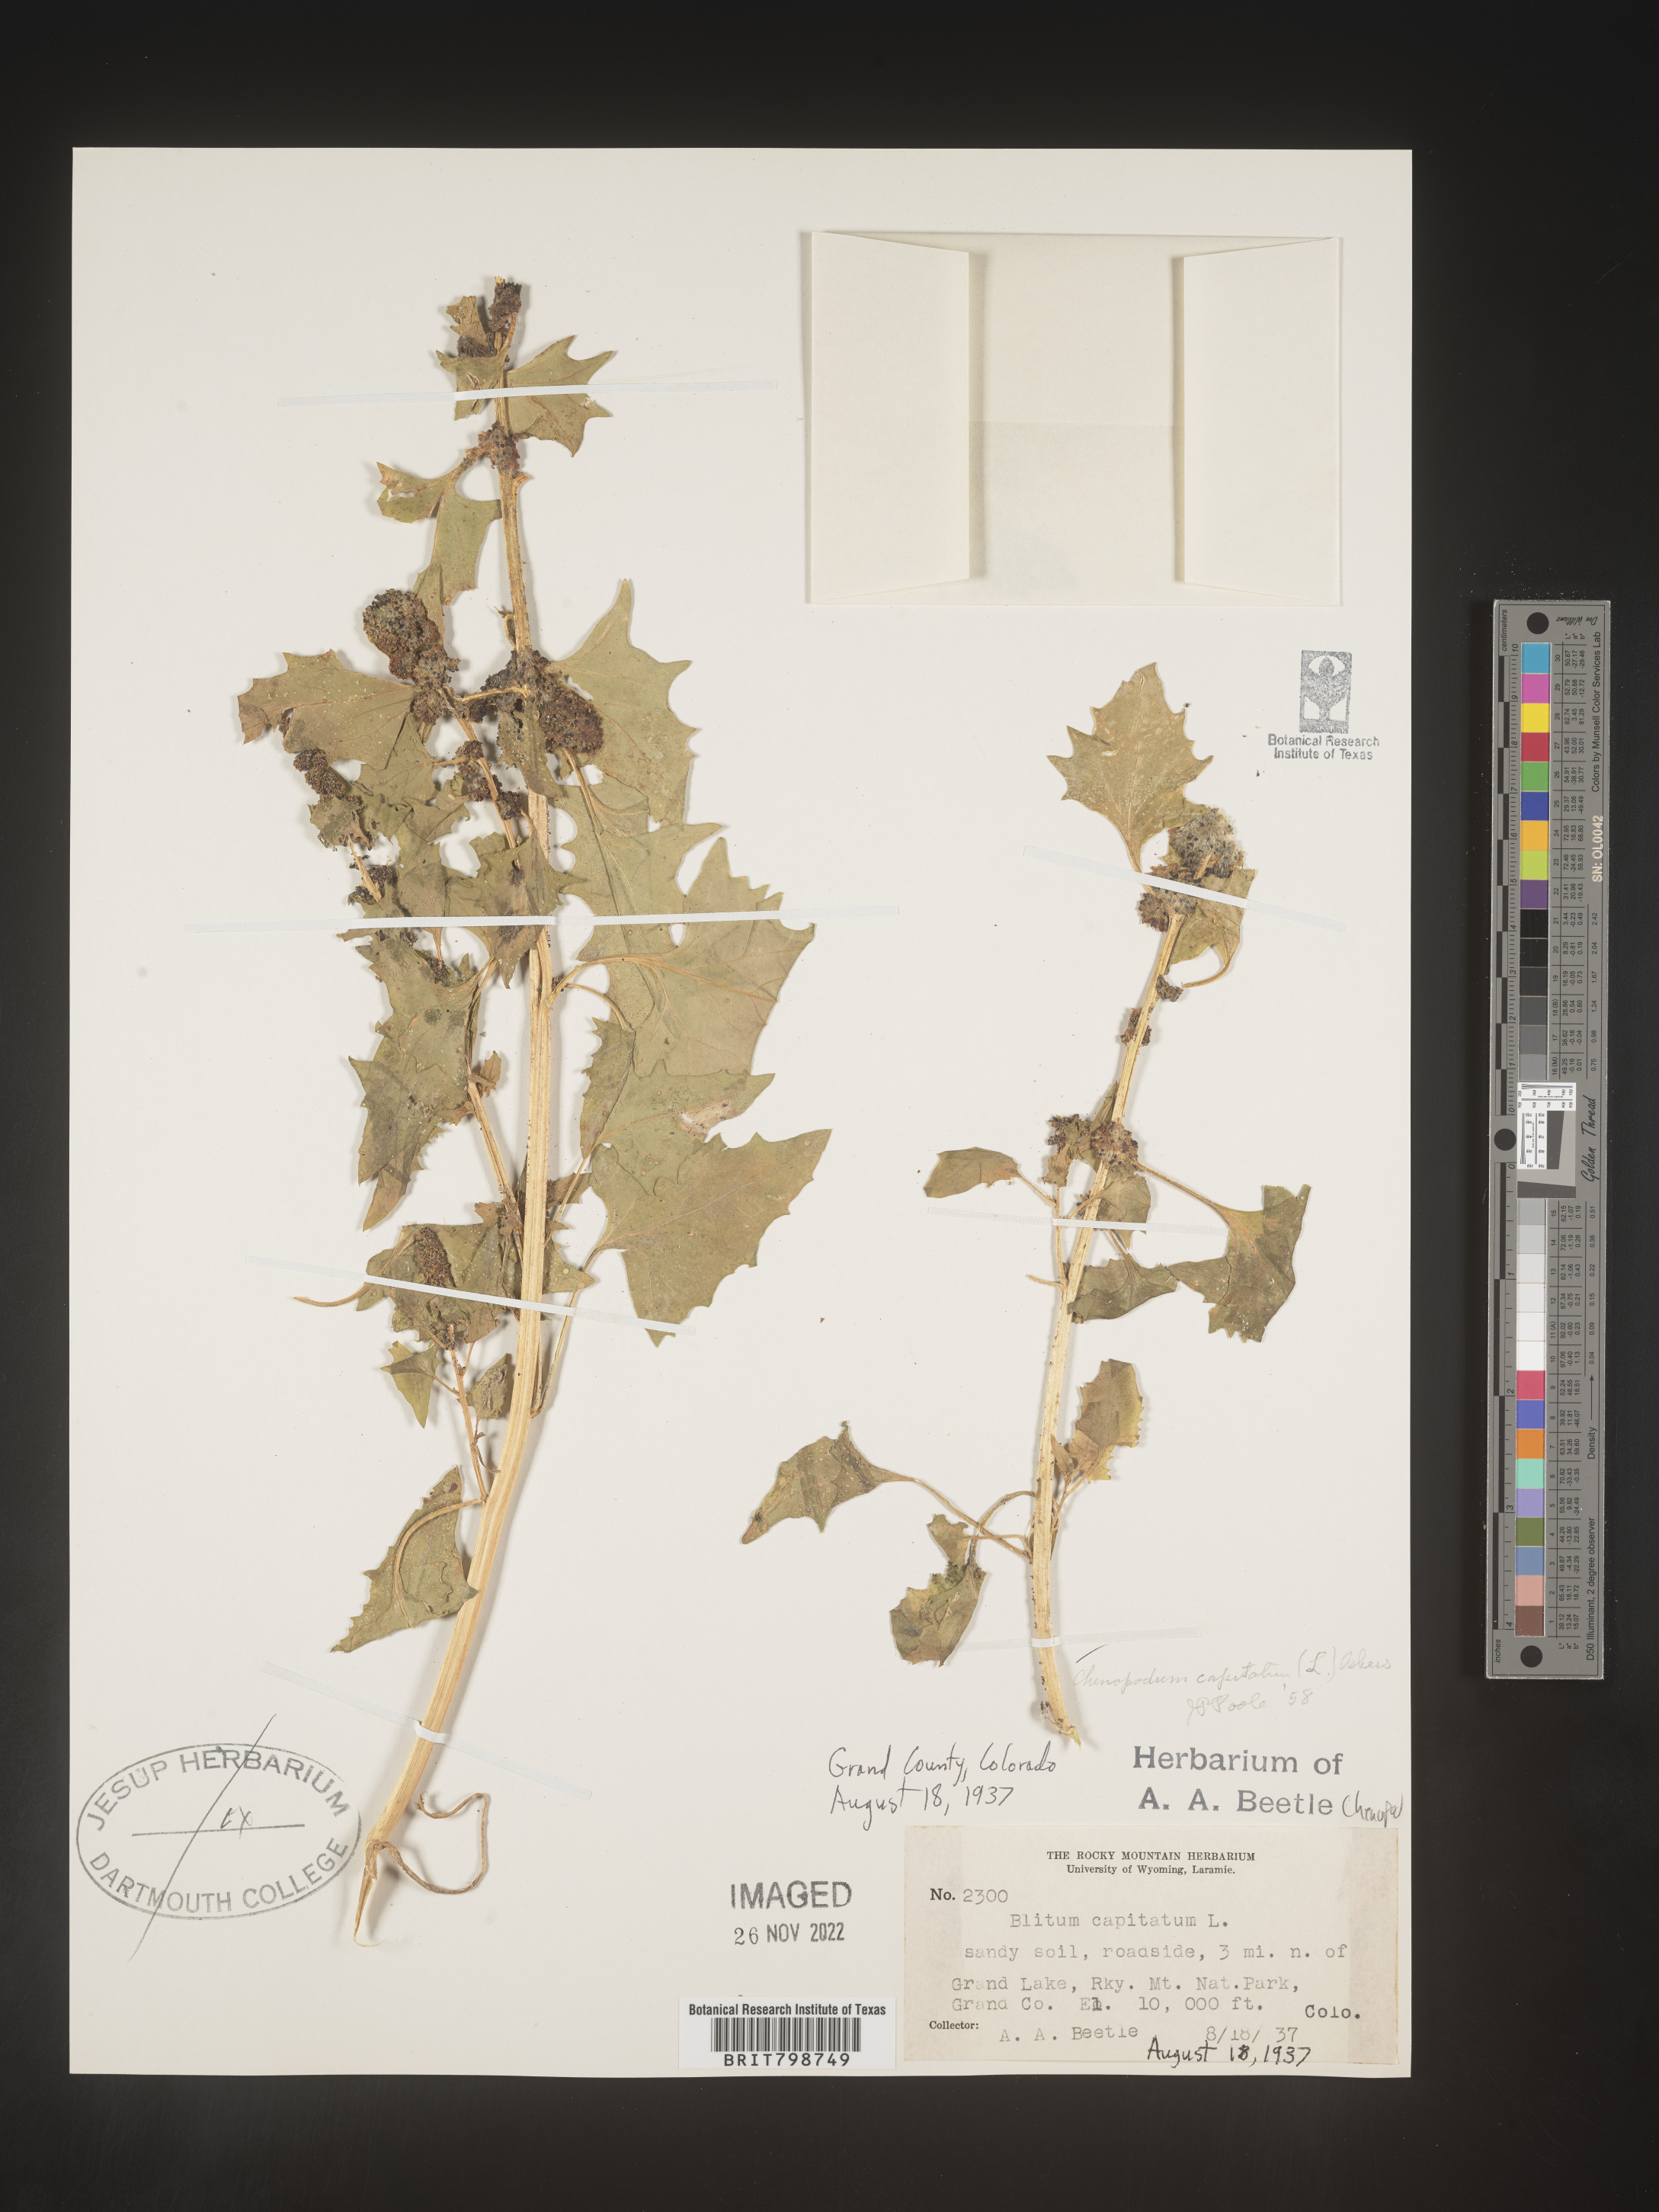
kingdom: Plantae
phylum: Tracheophyta
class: Magnoliopsida
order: Caryophyllales
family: Amaranthaceae
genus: Blitum
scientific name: Blitum capitatum
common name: Strawberry-blight
